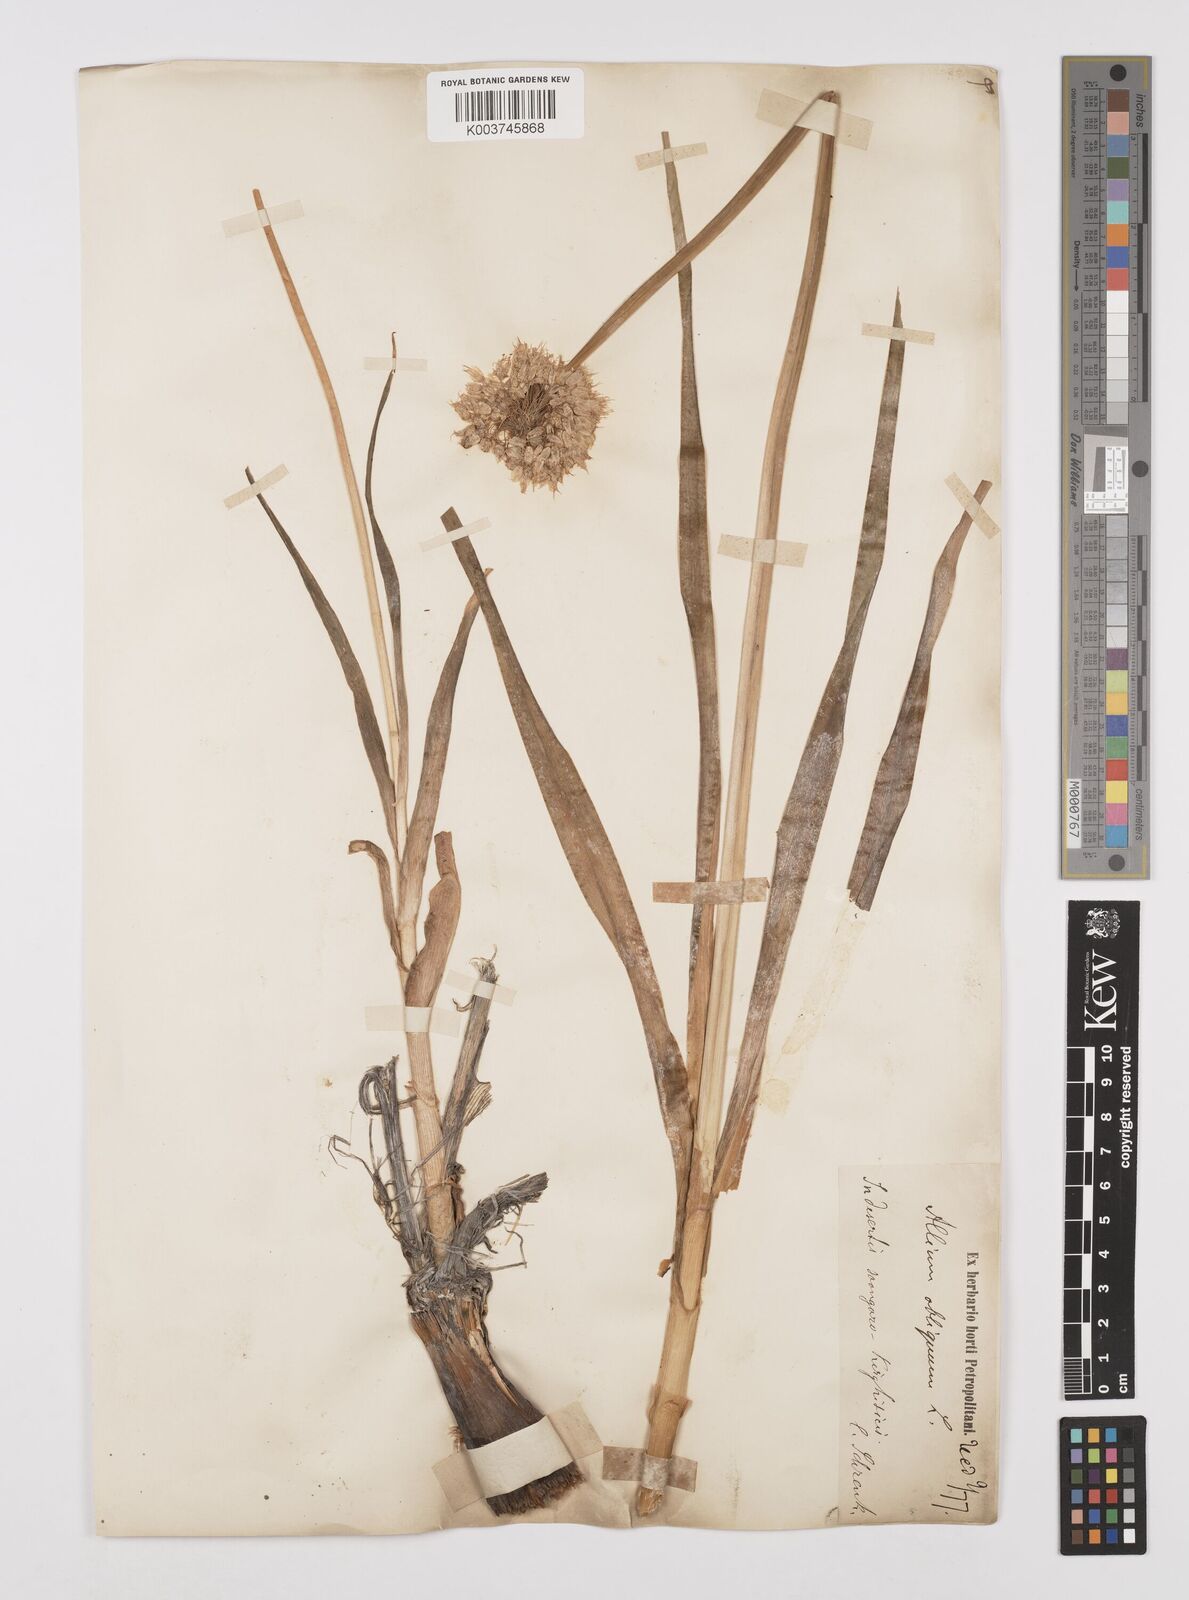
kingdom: Plantae
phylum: Tracheophyta
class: Liliopsida
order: Asparagales
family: Amaryllidaceae
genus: Allium
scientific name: Allium obliquum
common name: Oblique onion
